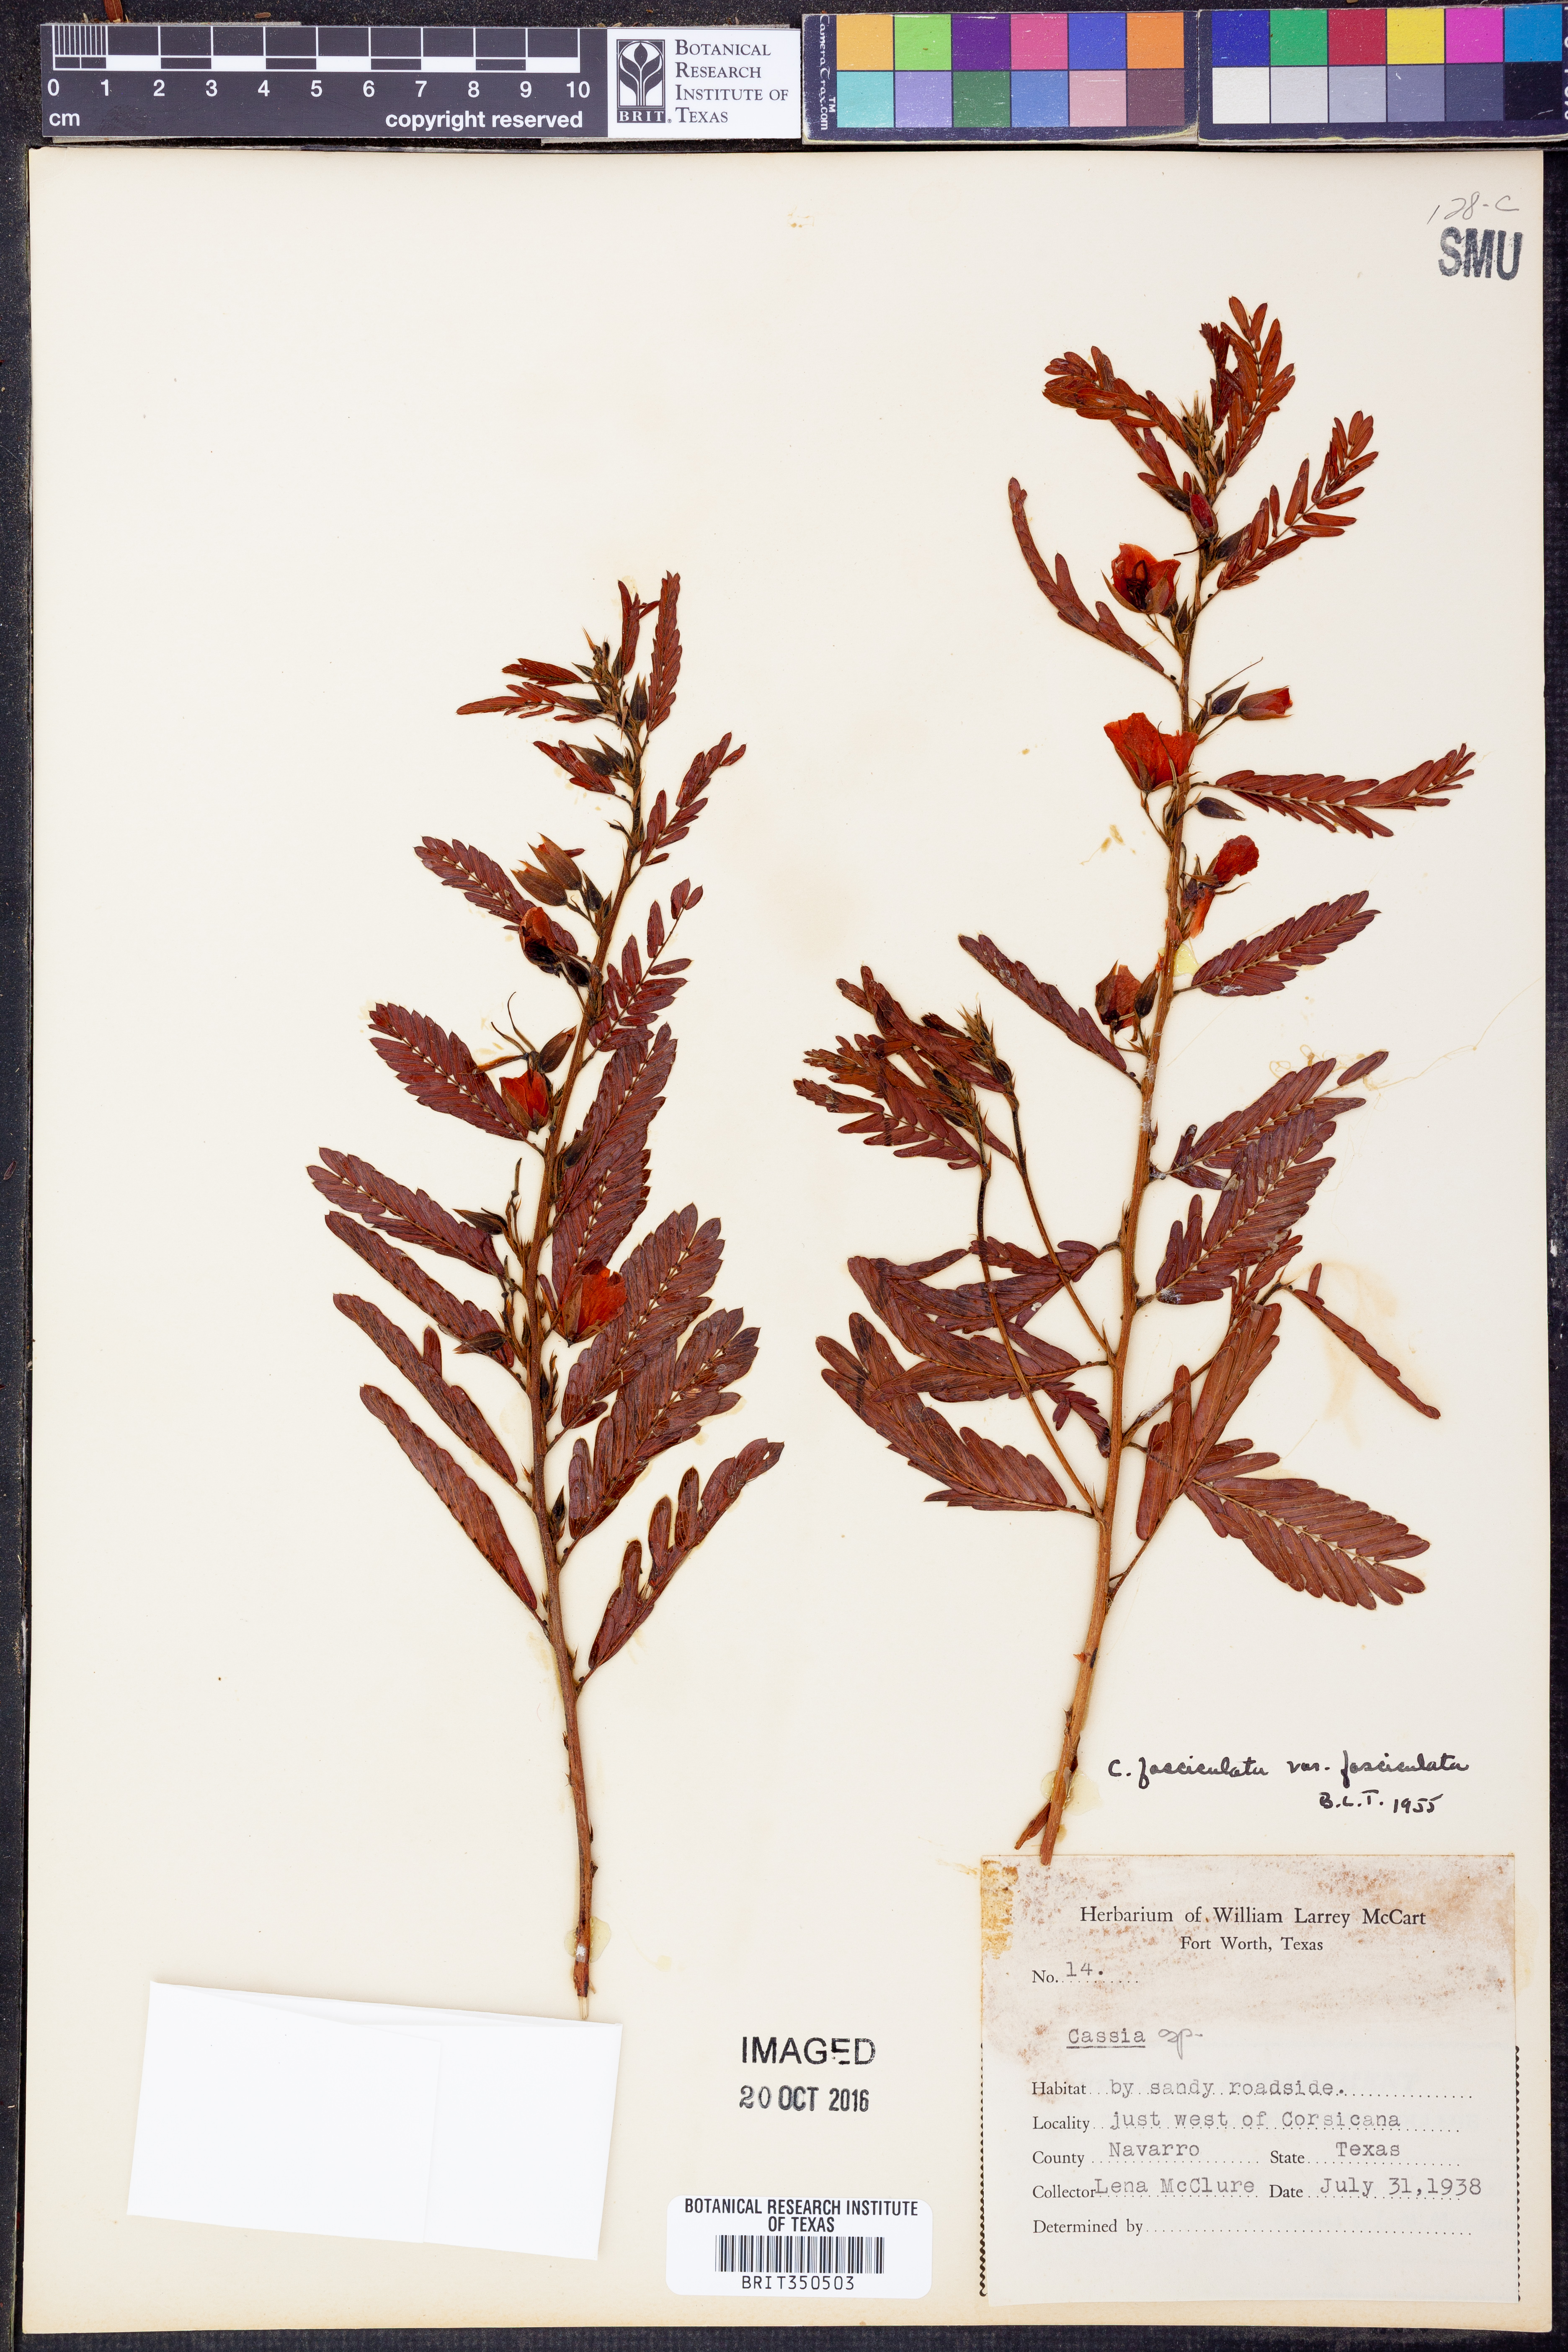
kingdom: Plantae
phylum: Tracheophyta
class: Magnoliopsida
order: Fabales
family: Fabaceae
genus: Chamaecrista
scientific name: Chamaecrista fasciculata
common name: Golden cassia
